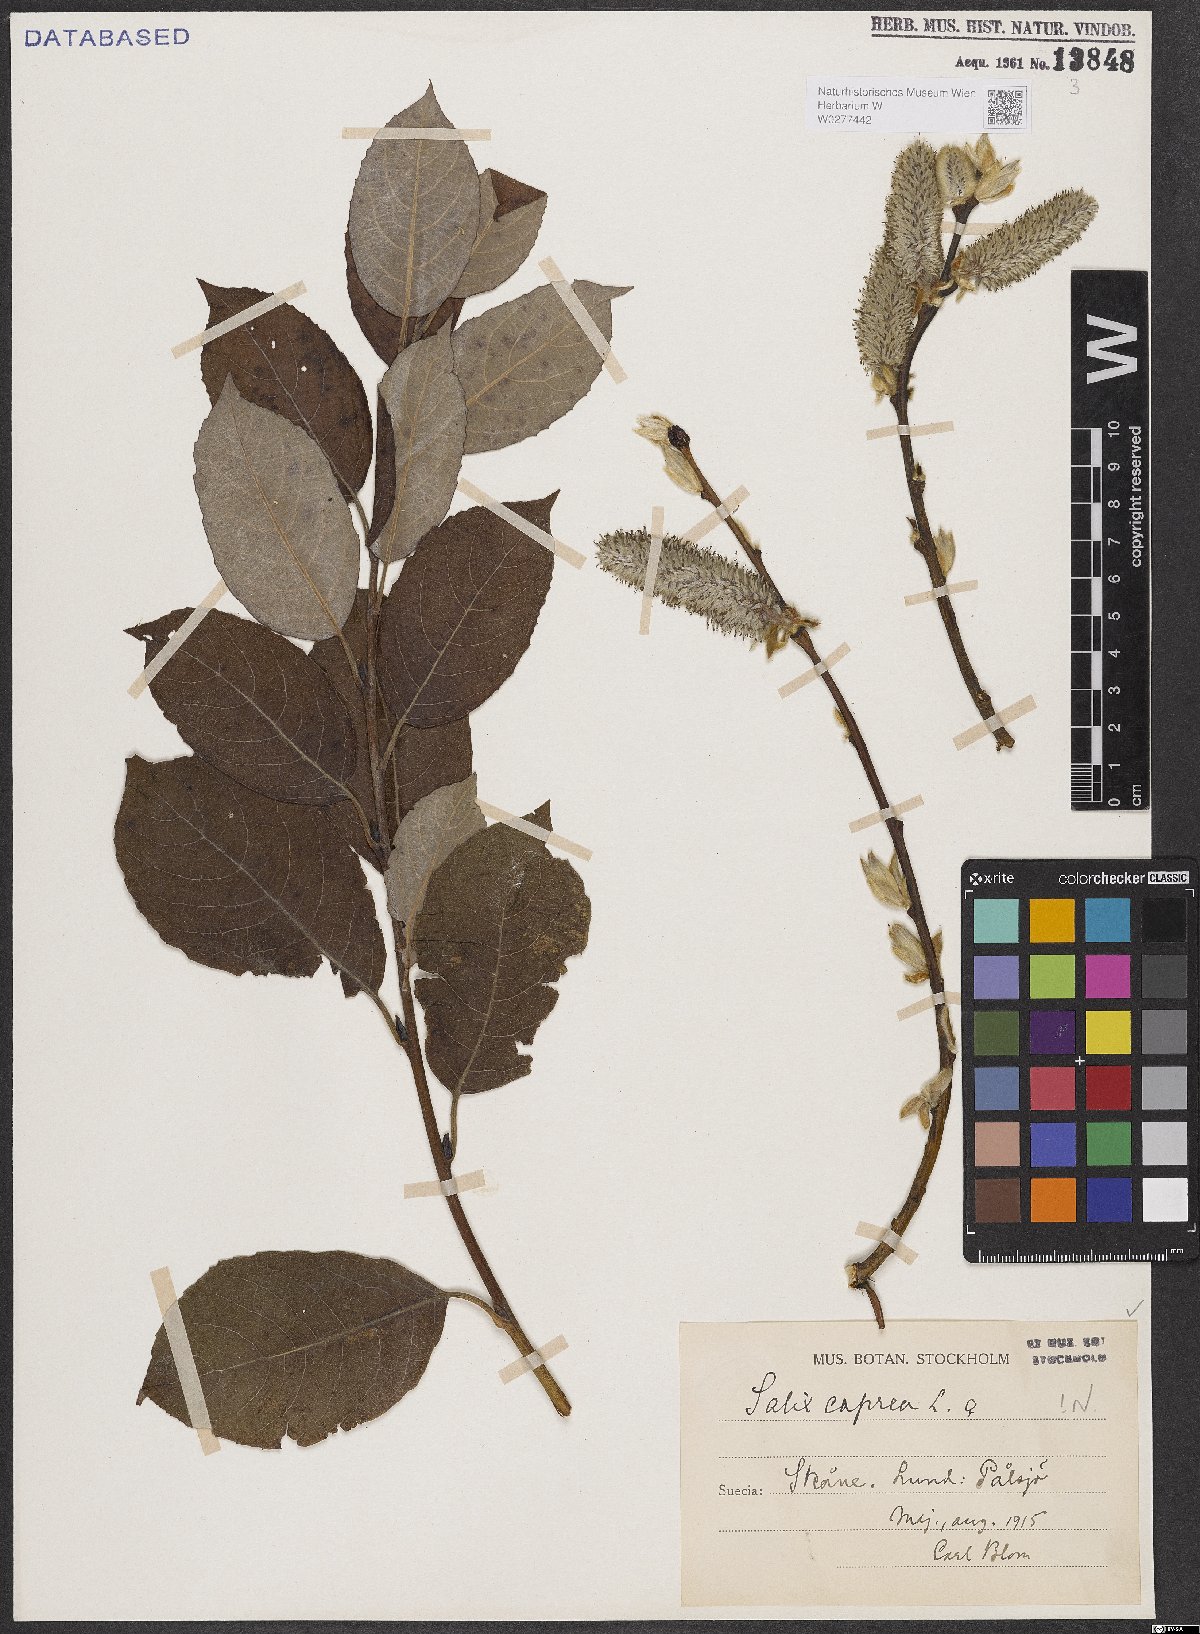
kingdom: Plantae
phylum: Tracheophyta
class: Magnoliopsida
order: Malpighiales
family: Salicaceae
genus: Salix
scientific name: Salix caprea
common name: Goat willow
